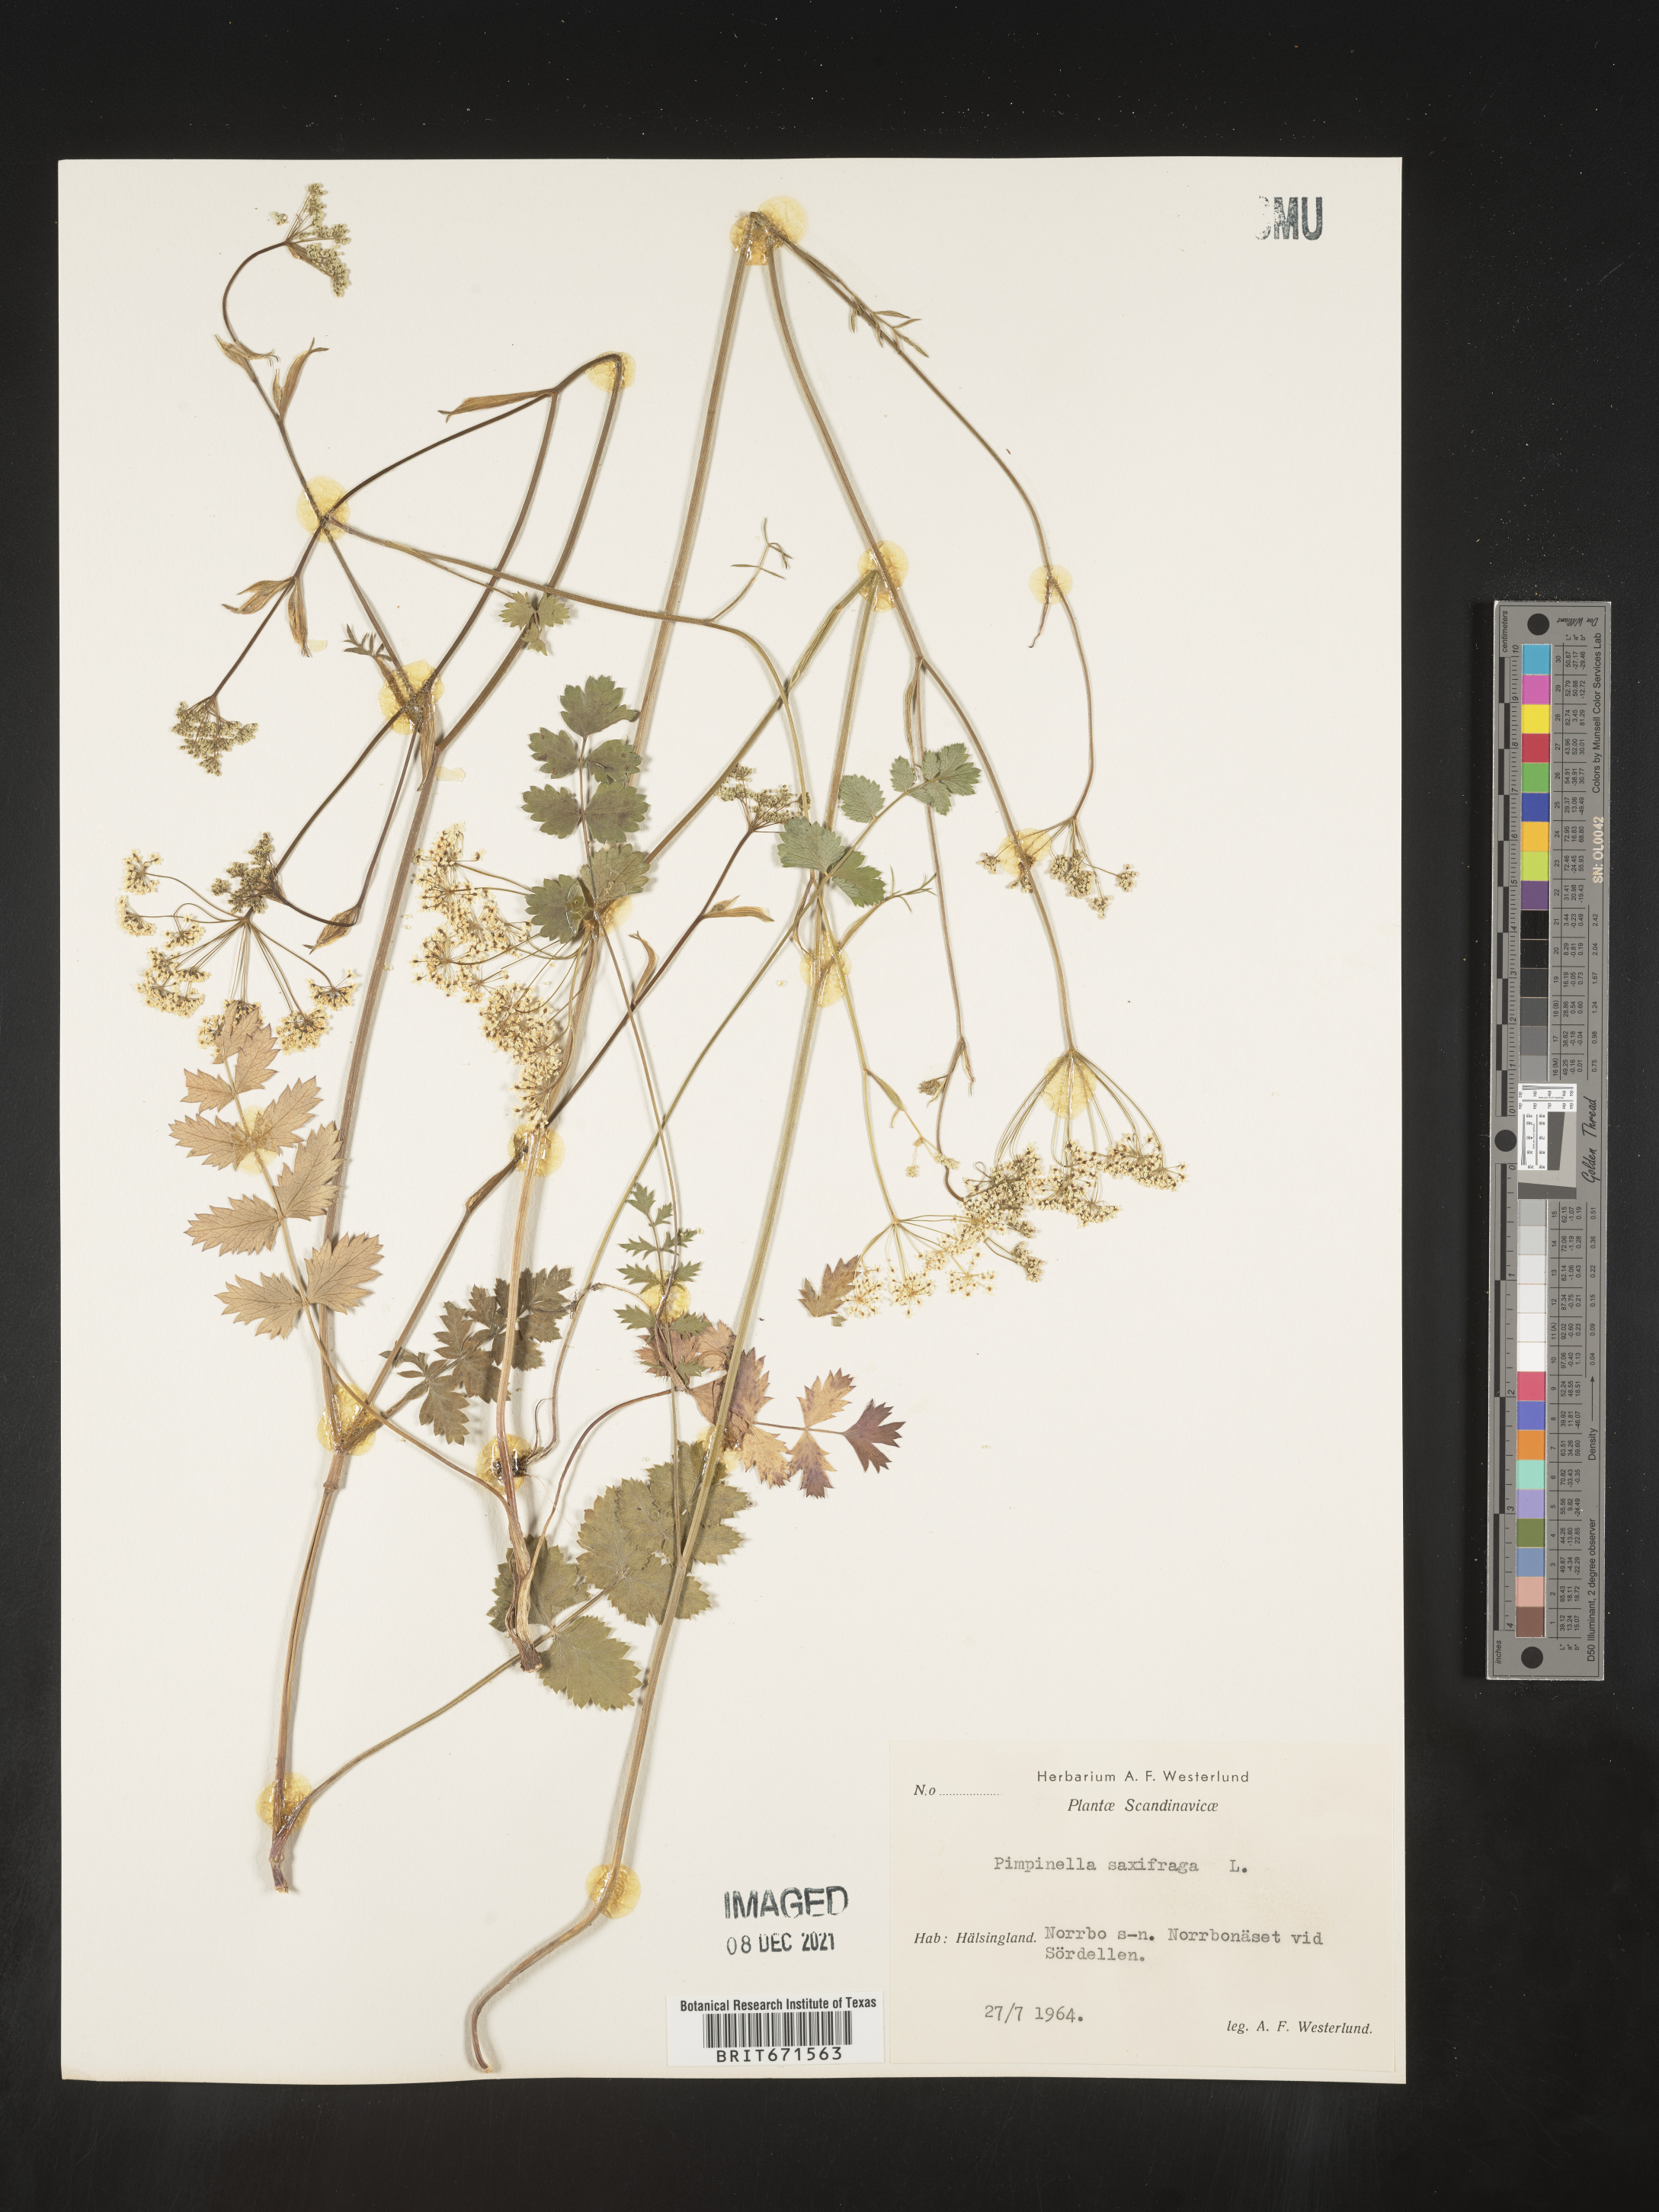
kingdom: Plantae
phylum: Tracheophyta
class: Magnoliopsida
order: Apiales
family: Apiaceae
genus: Pimpinella
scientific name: Pimpinella
